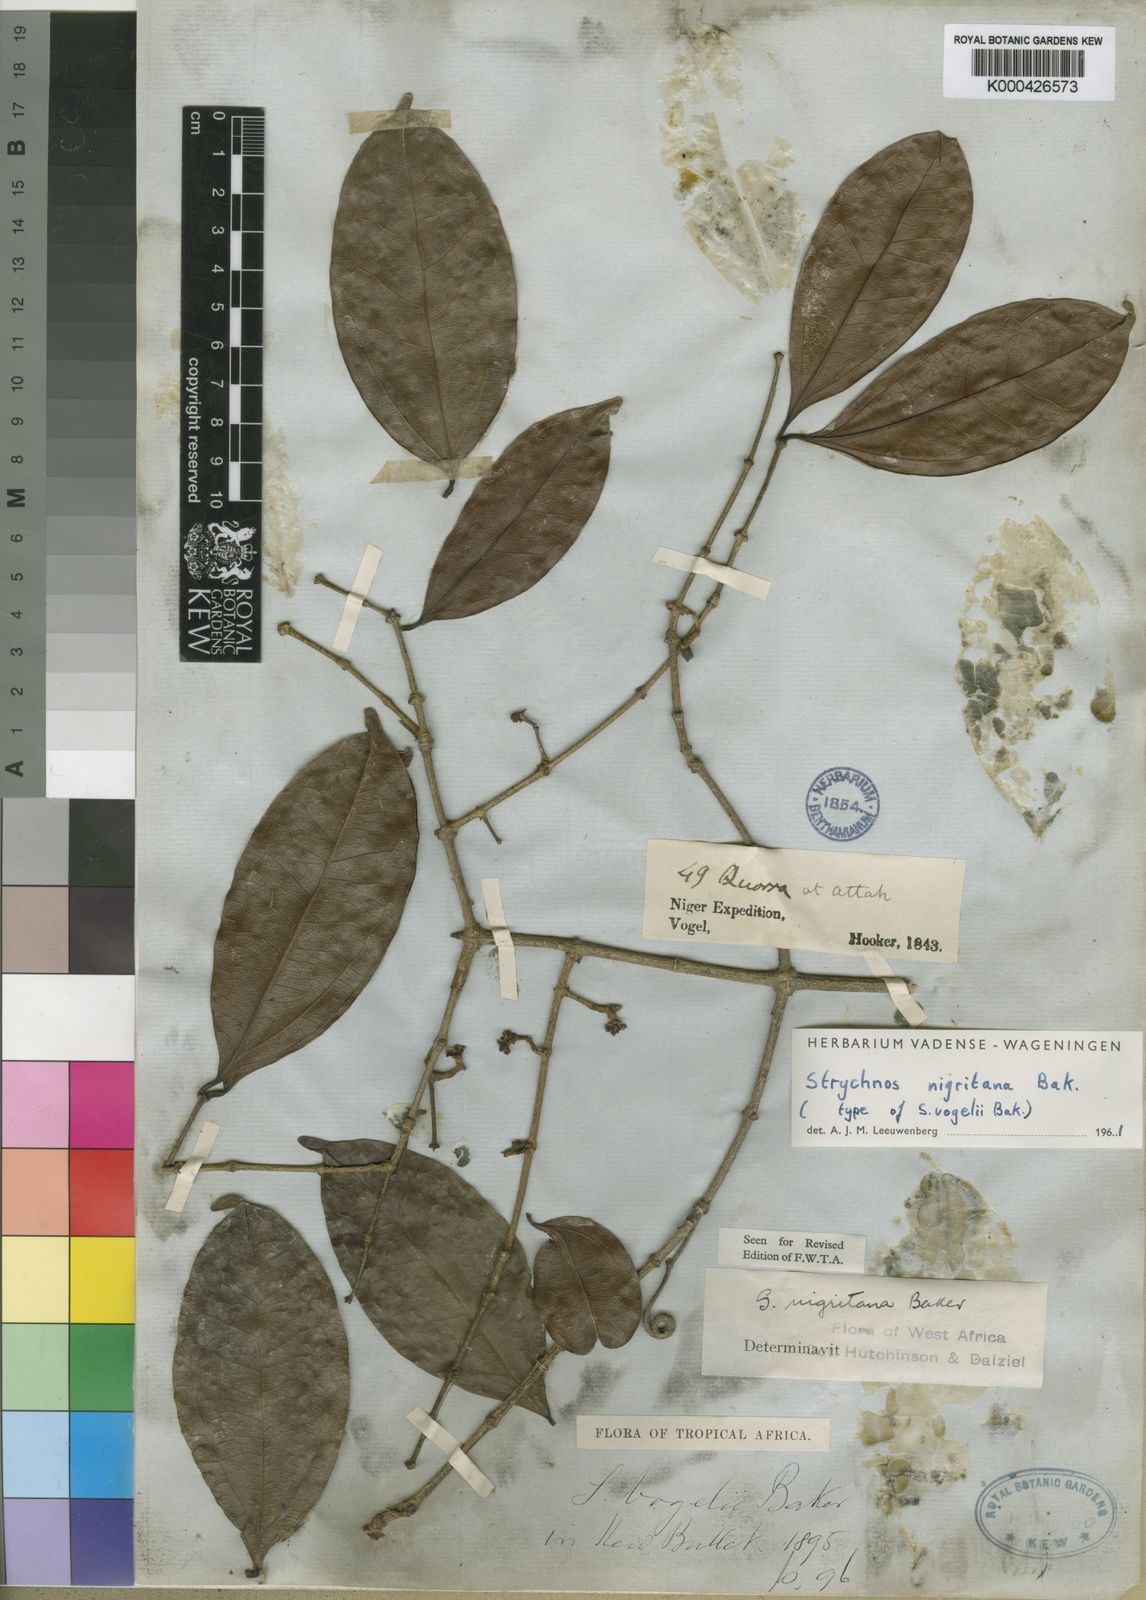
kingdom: Plantae
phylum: Tracheophyta
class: Magnoliopsida
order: Gentianales
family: Loganiaceae
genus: Strychnos
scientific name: Strychnos nigritana
